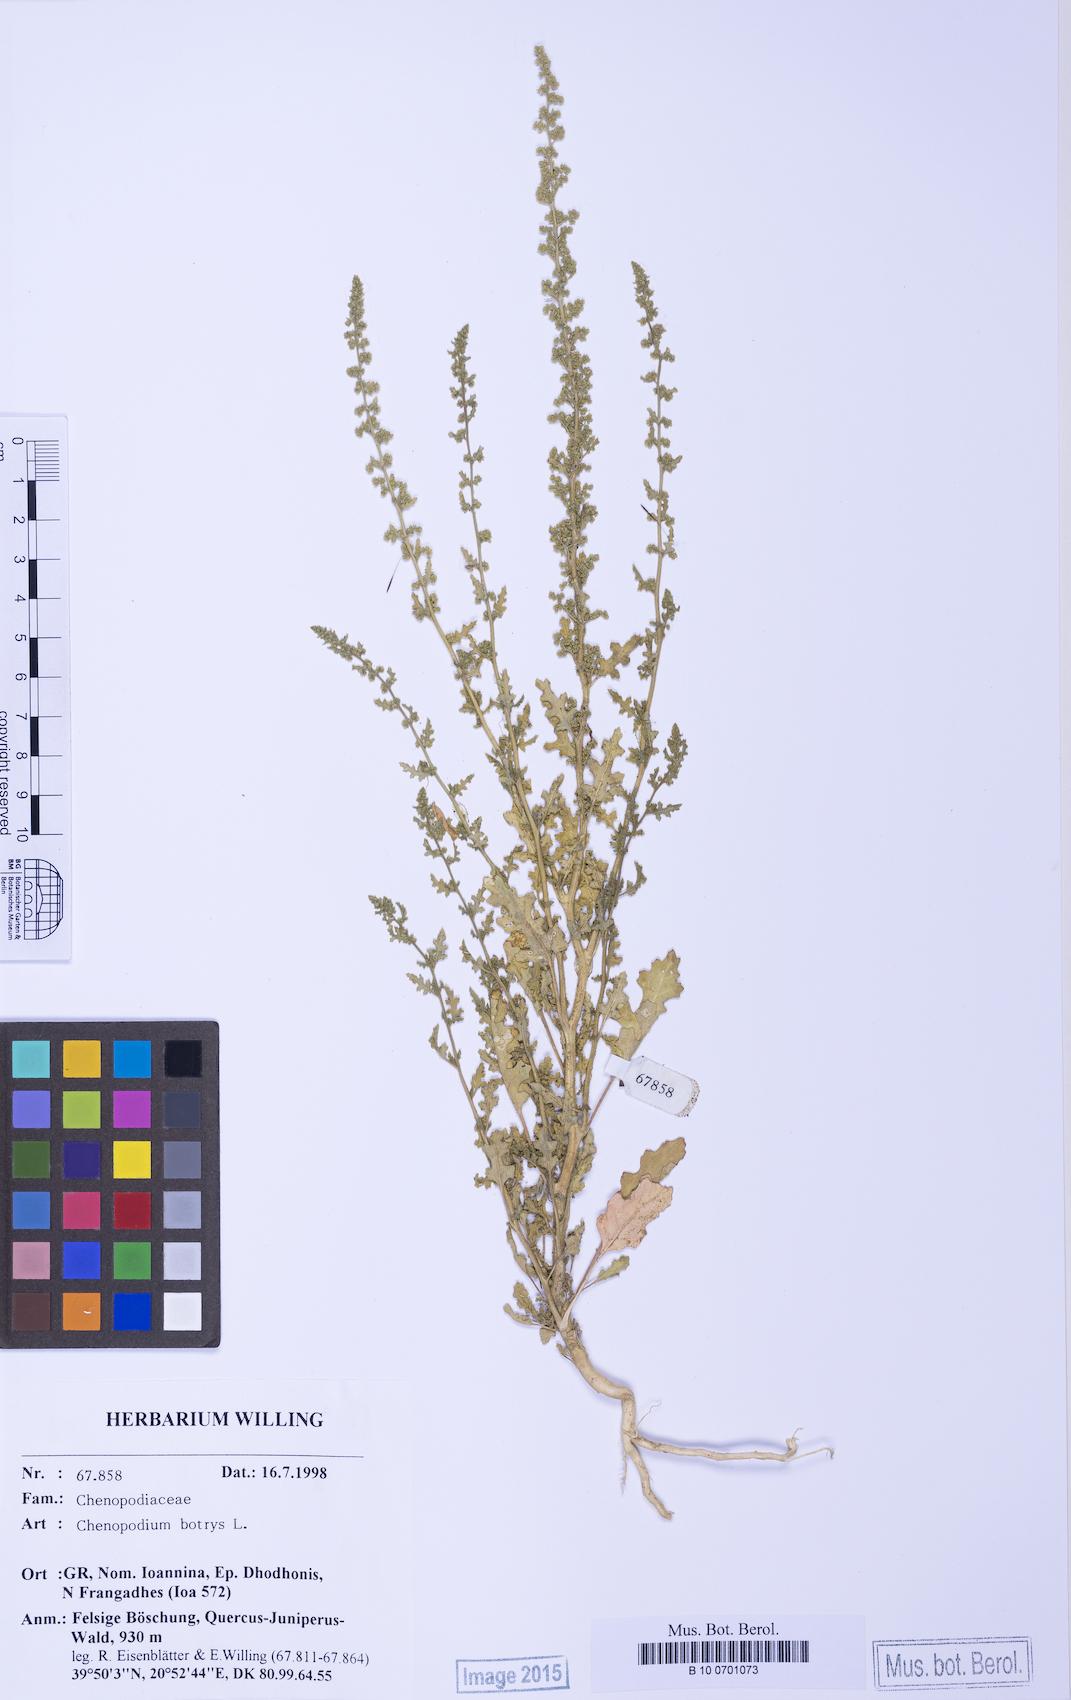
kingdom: Plantae
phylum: Tracheophyta
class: Magnoliopsida
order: Caryophyllales
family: Amaranthaceae
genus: Dysphania
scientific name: Dysphania botrys
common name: Feather-geranium
